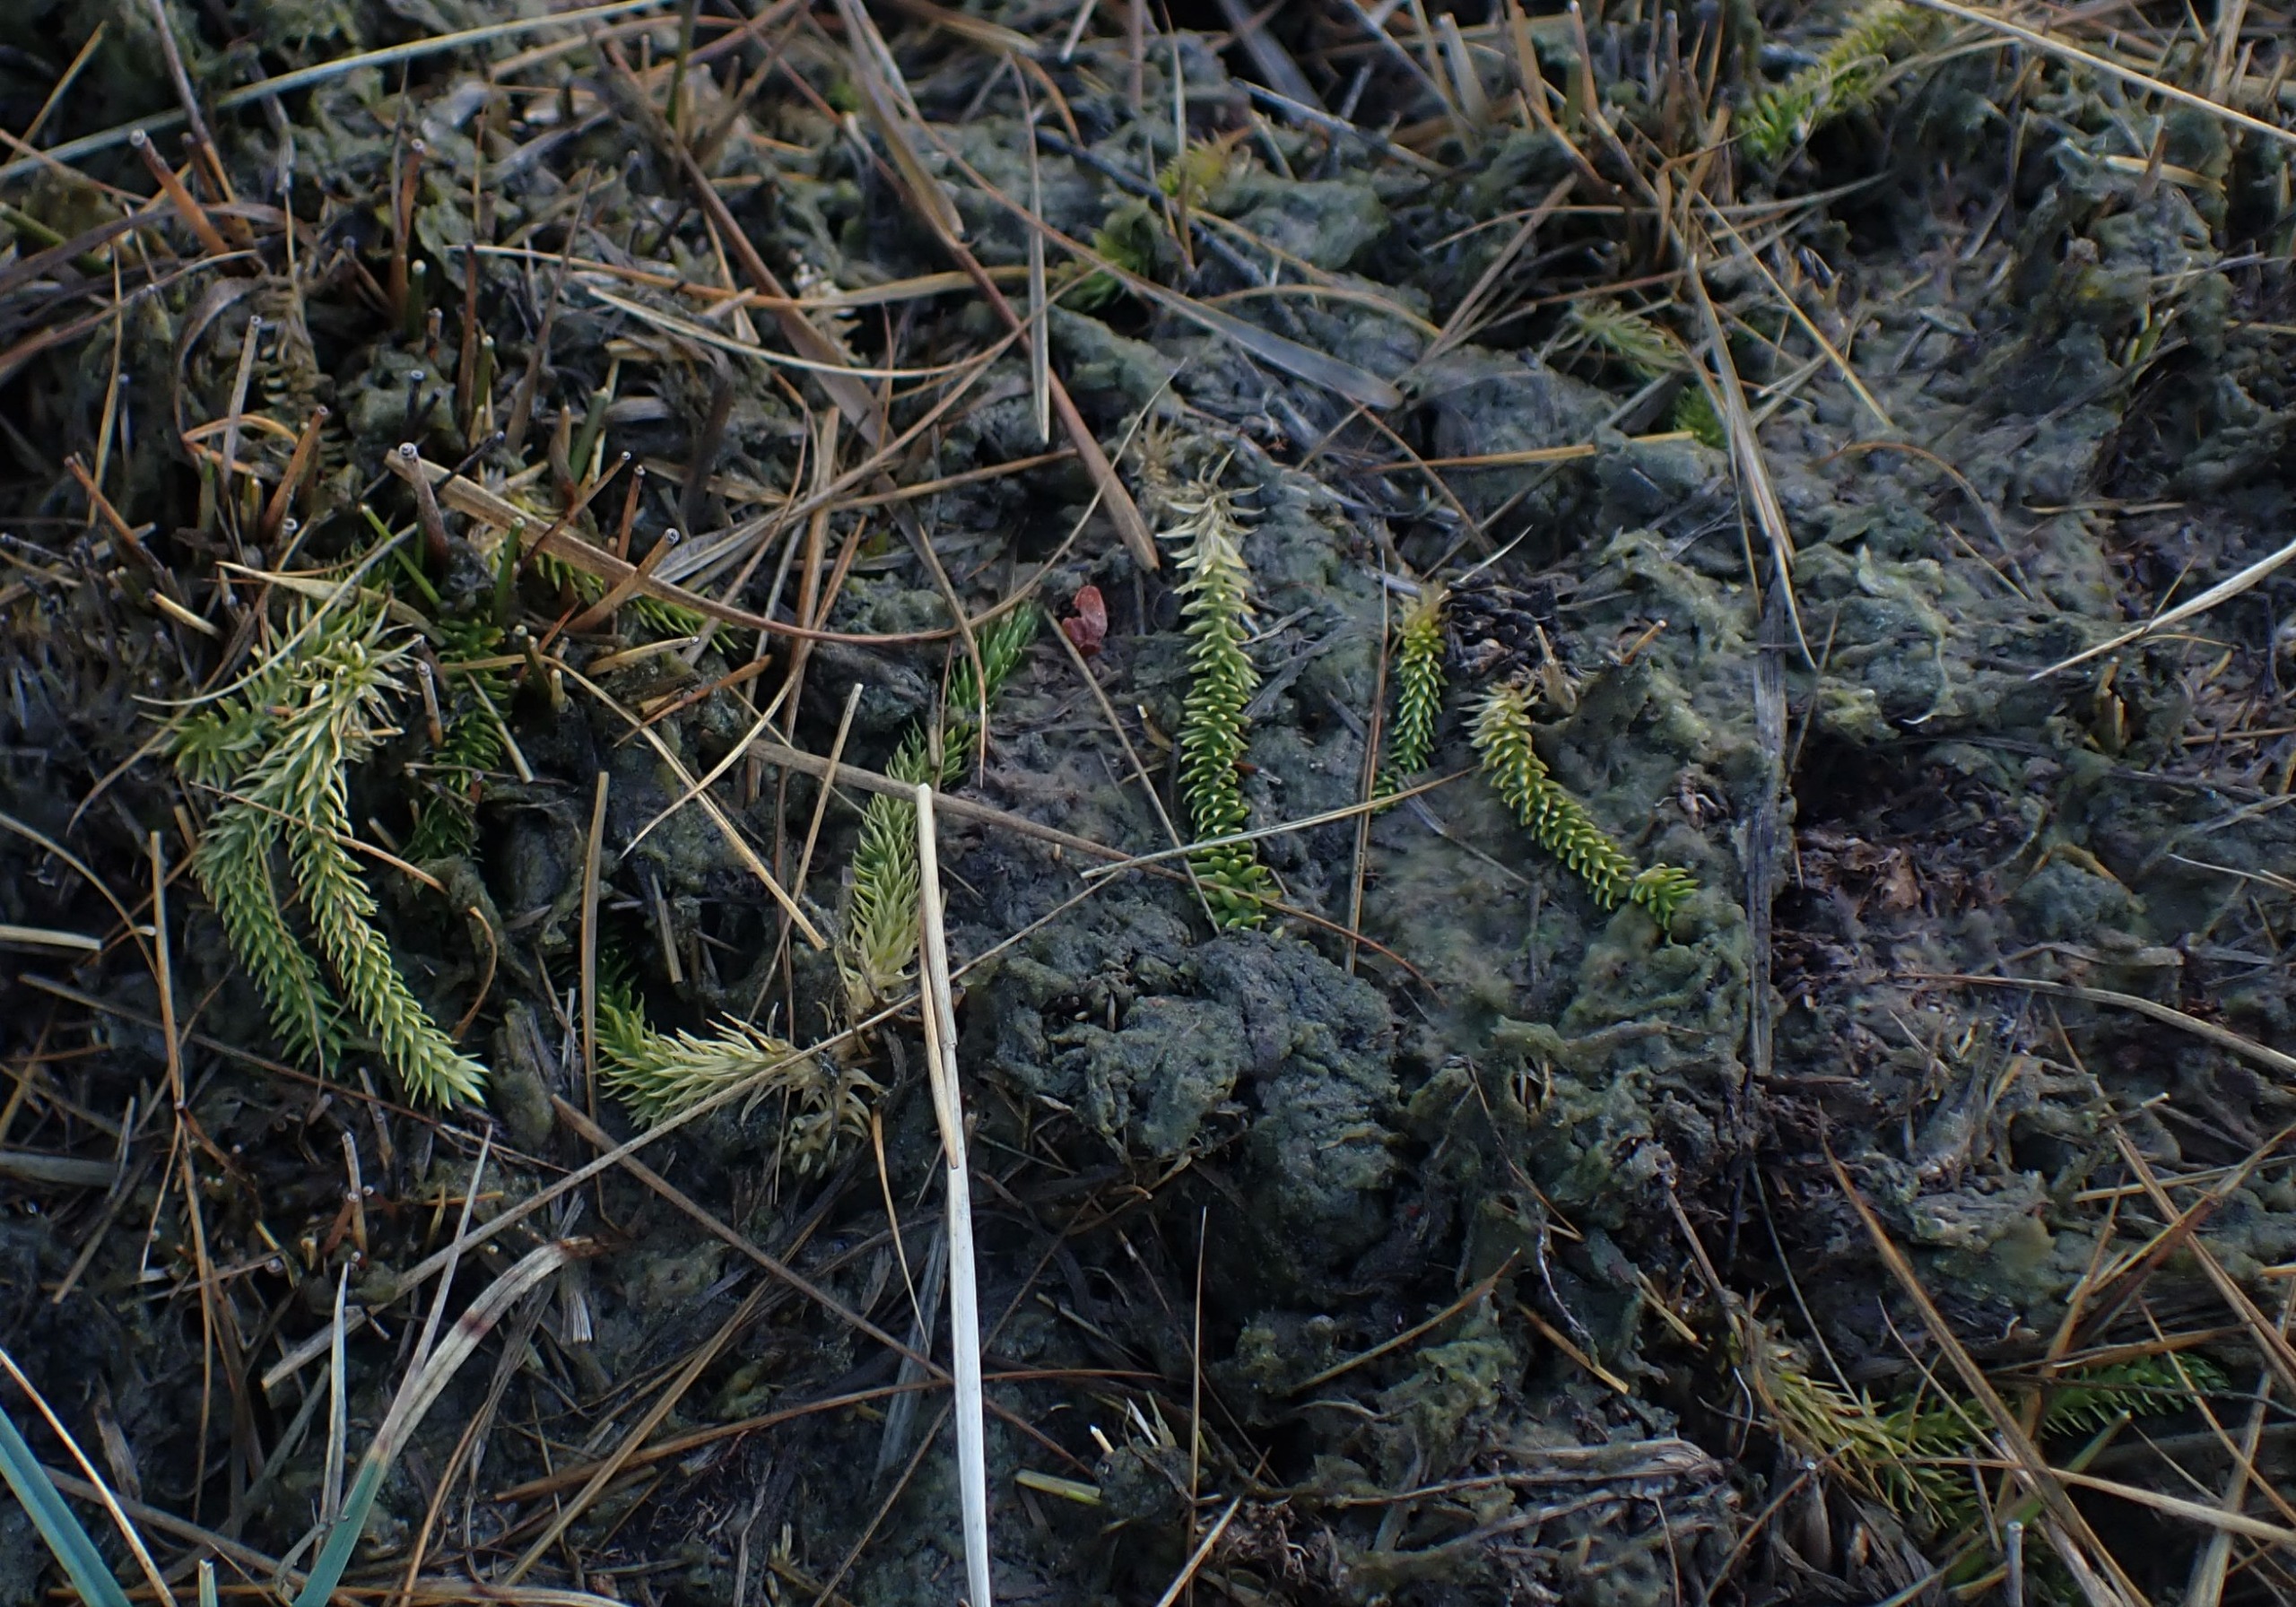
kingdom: Plantae
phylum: Tracheophyta
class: Lycopodiopsida
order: Lycopodiales
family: Lycopodiaceae
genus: Lycopodiella
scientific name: Lycopodiella inundata
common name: Liden ulvefod
